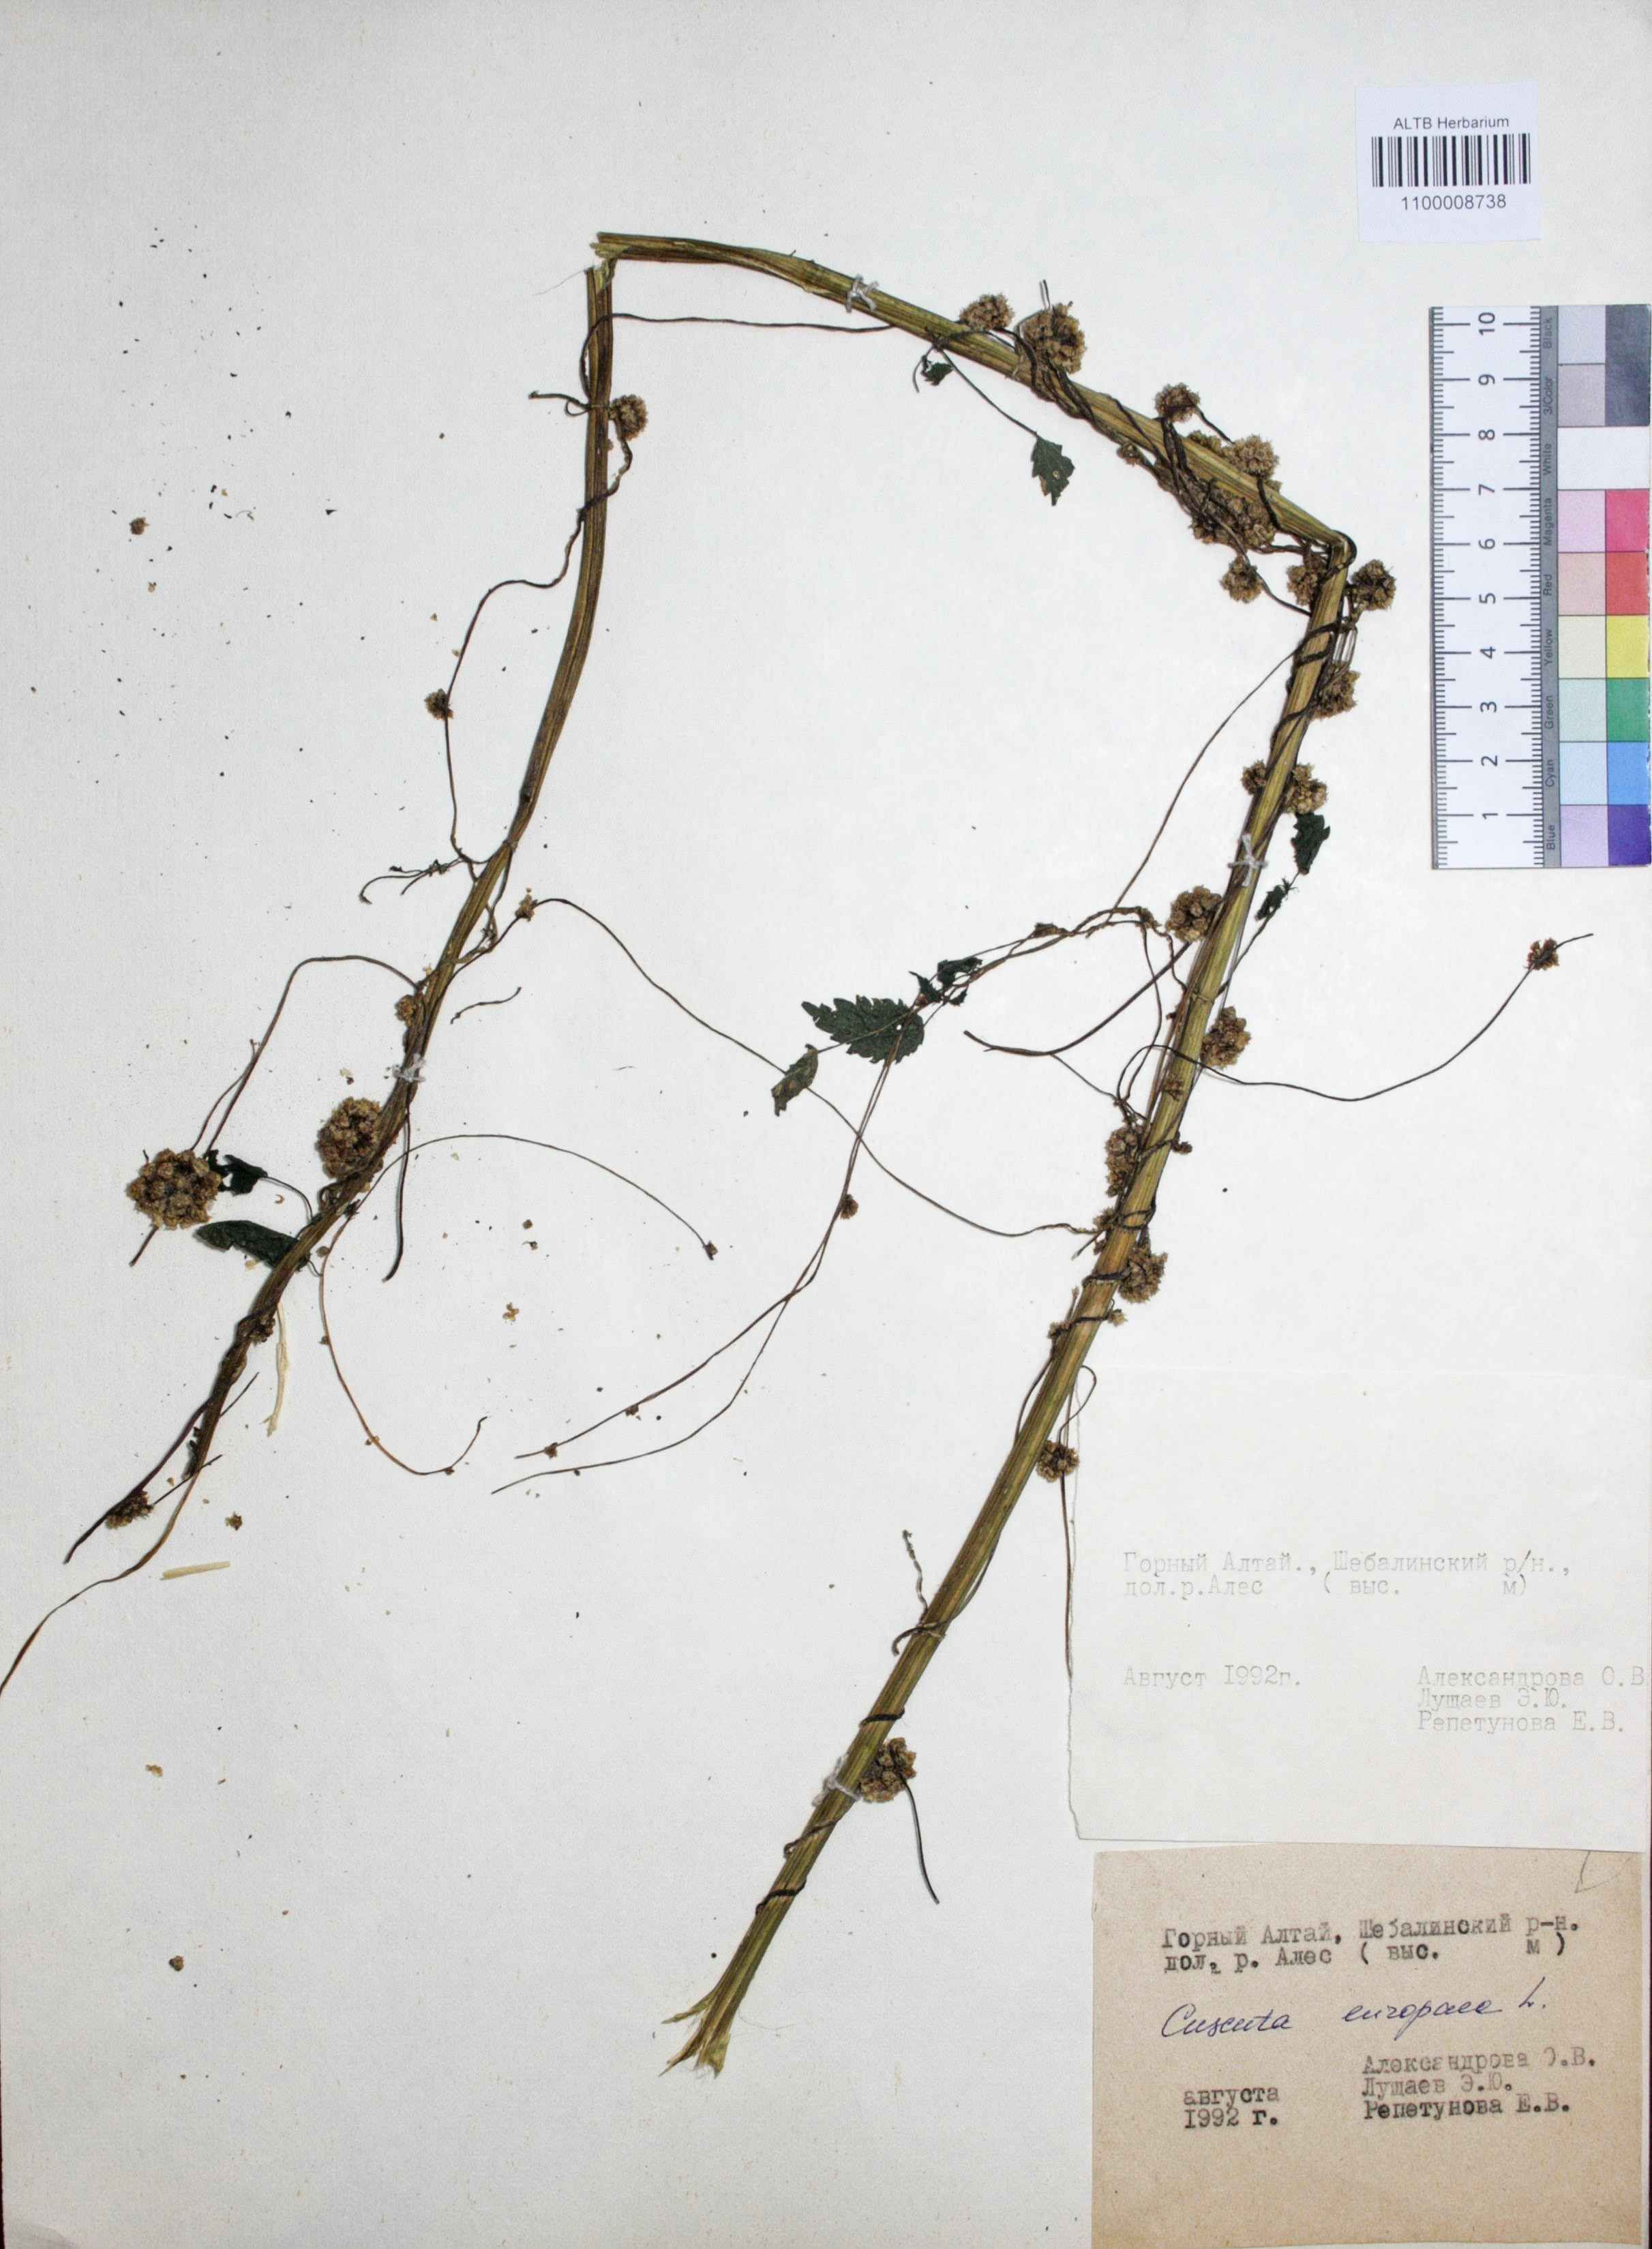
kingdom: Plantae
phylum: Tracheophyta
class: Magnoliopsida
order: Solanales
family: Convolvulaceae
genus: Cuscuta
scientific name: Cuscuta europaea
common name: Greater dodder
